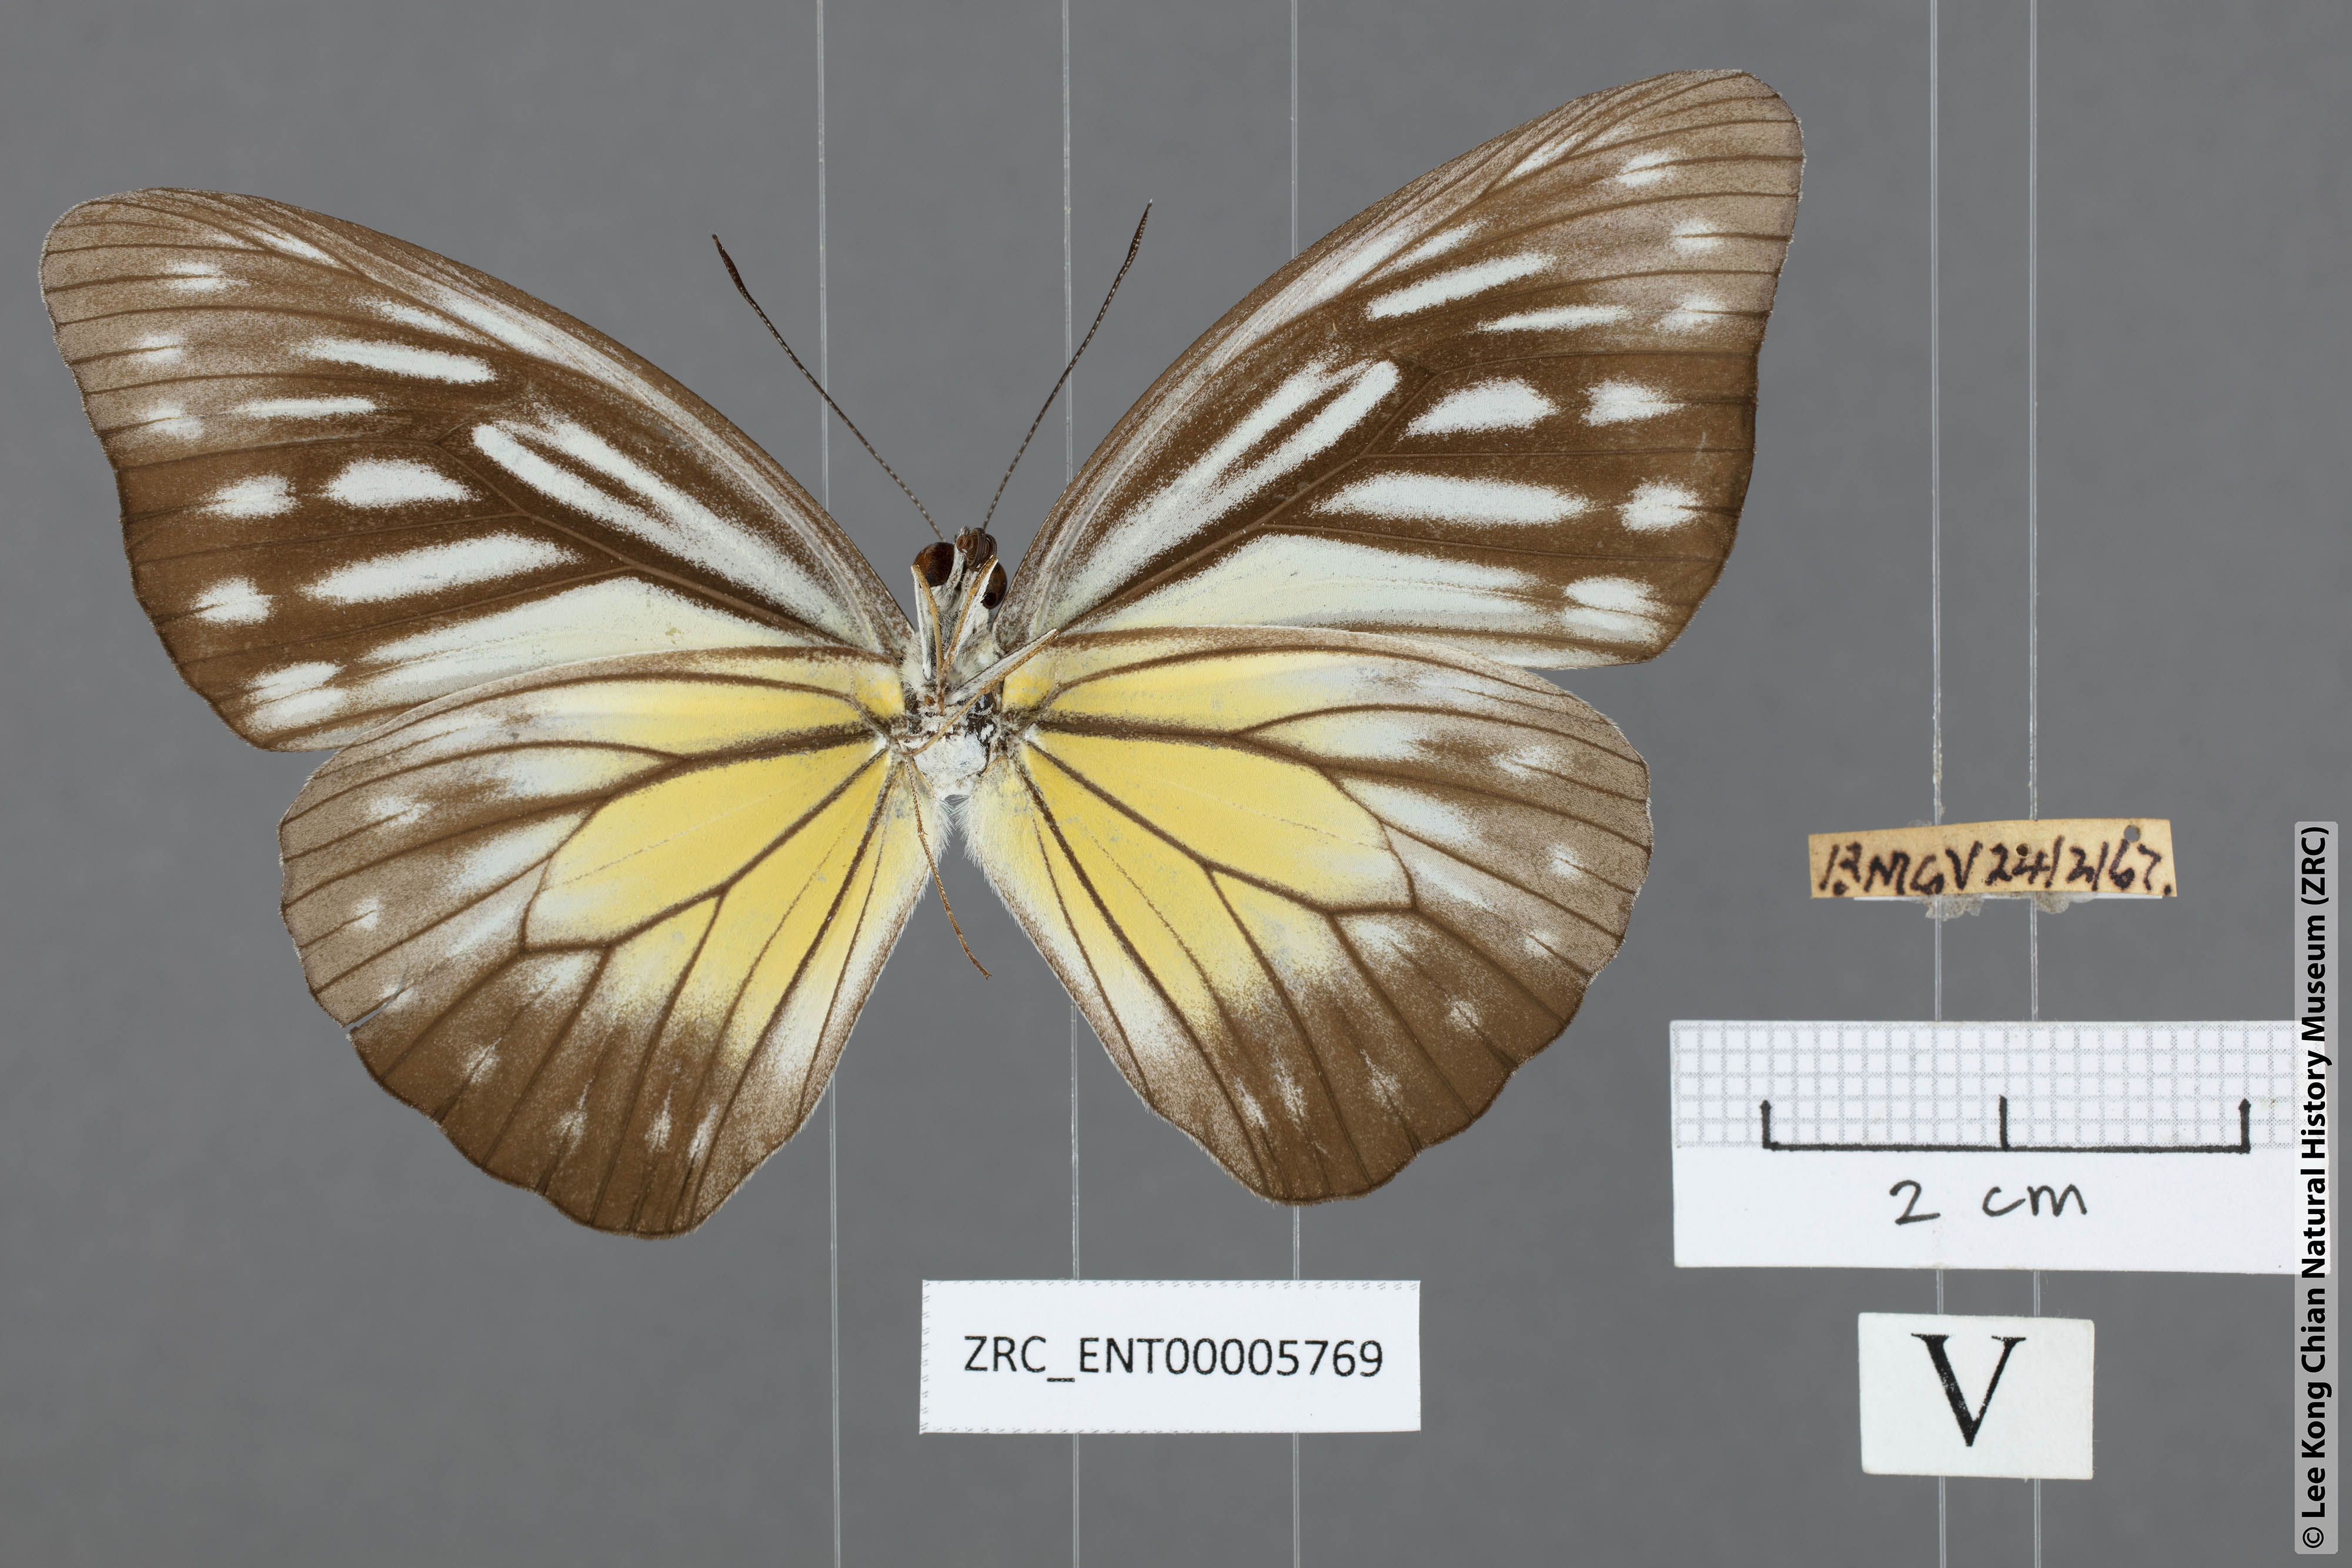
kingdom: Animalia
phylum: Arthropoda
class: Insecta
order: Lepidoptera
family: Pieridae
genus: Pareronia
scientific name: Pareronia valeria
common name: Common wanderer?
